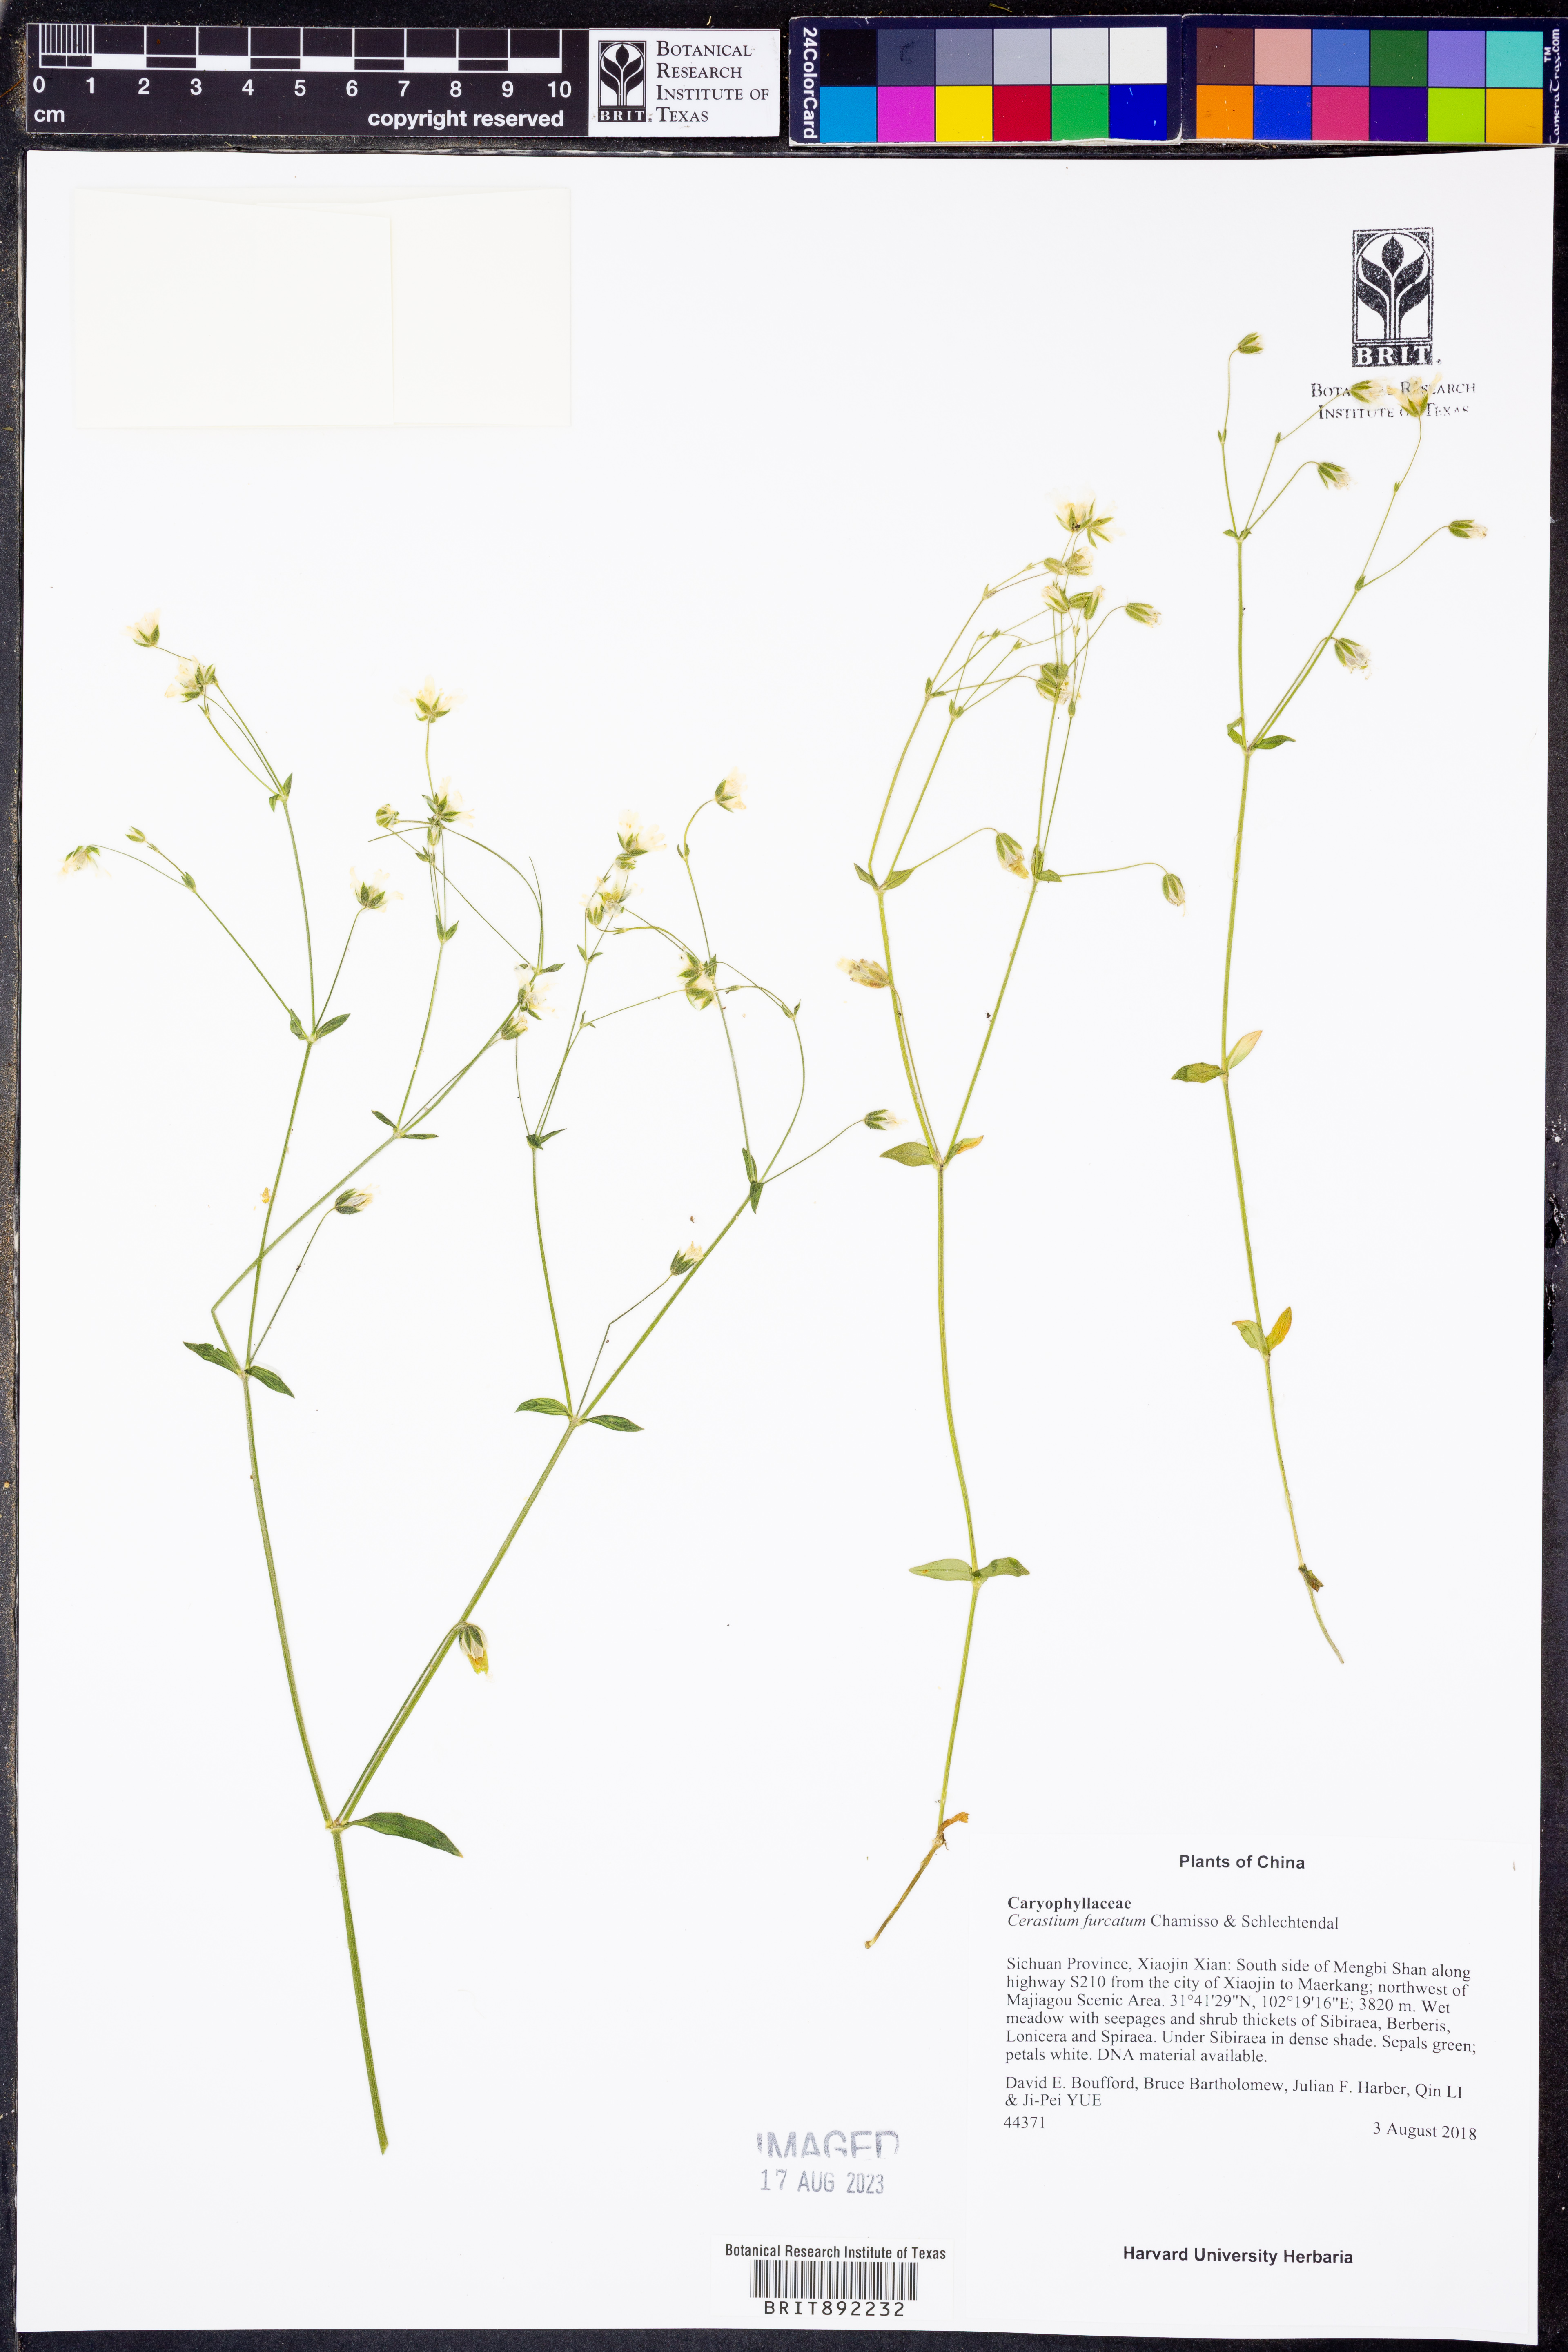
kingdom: Plantae
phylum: Tracheophyta
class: Magnoliopsida
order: Caryophyllales
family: Caryophyllaceae
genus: Cerastium
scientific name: Cerastium furcatum
